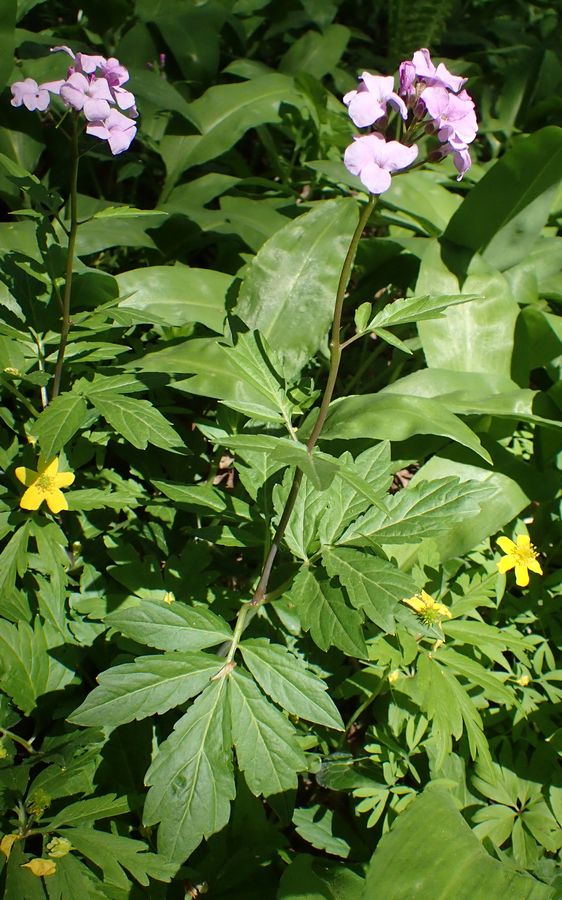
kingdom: Plantae
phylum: Tracheophyta
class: Magnoliopsida
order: Brassicales
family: Brassicaceae
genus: Cardamine
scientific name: Cardamine bulbifera
